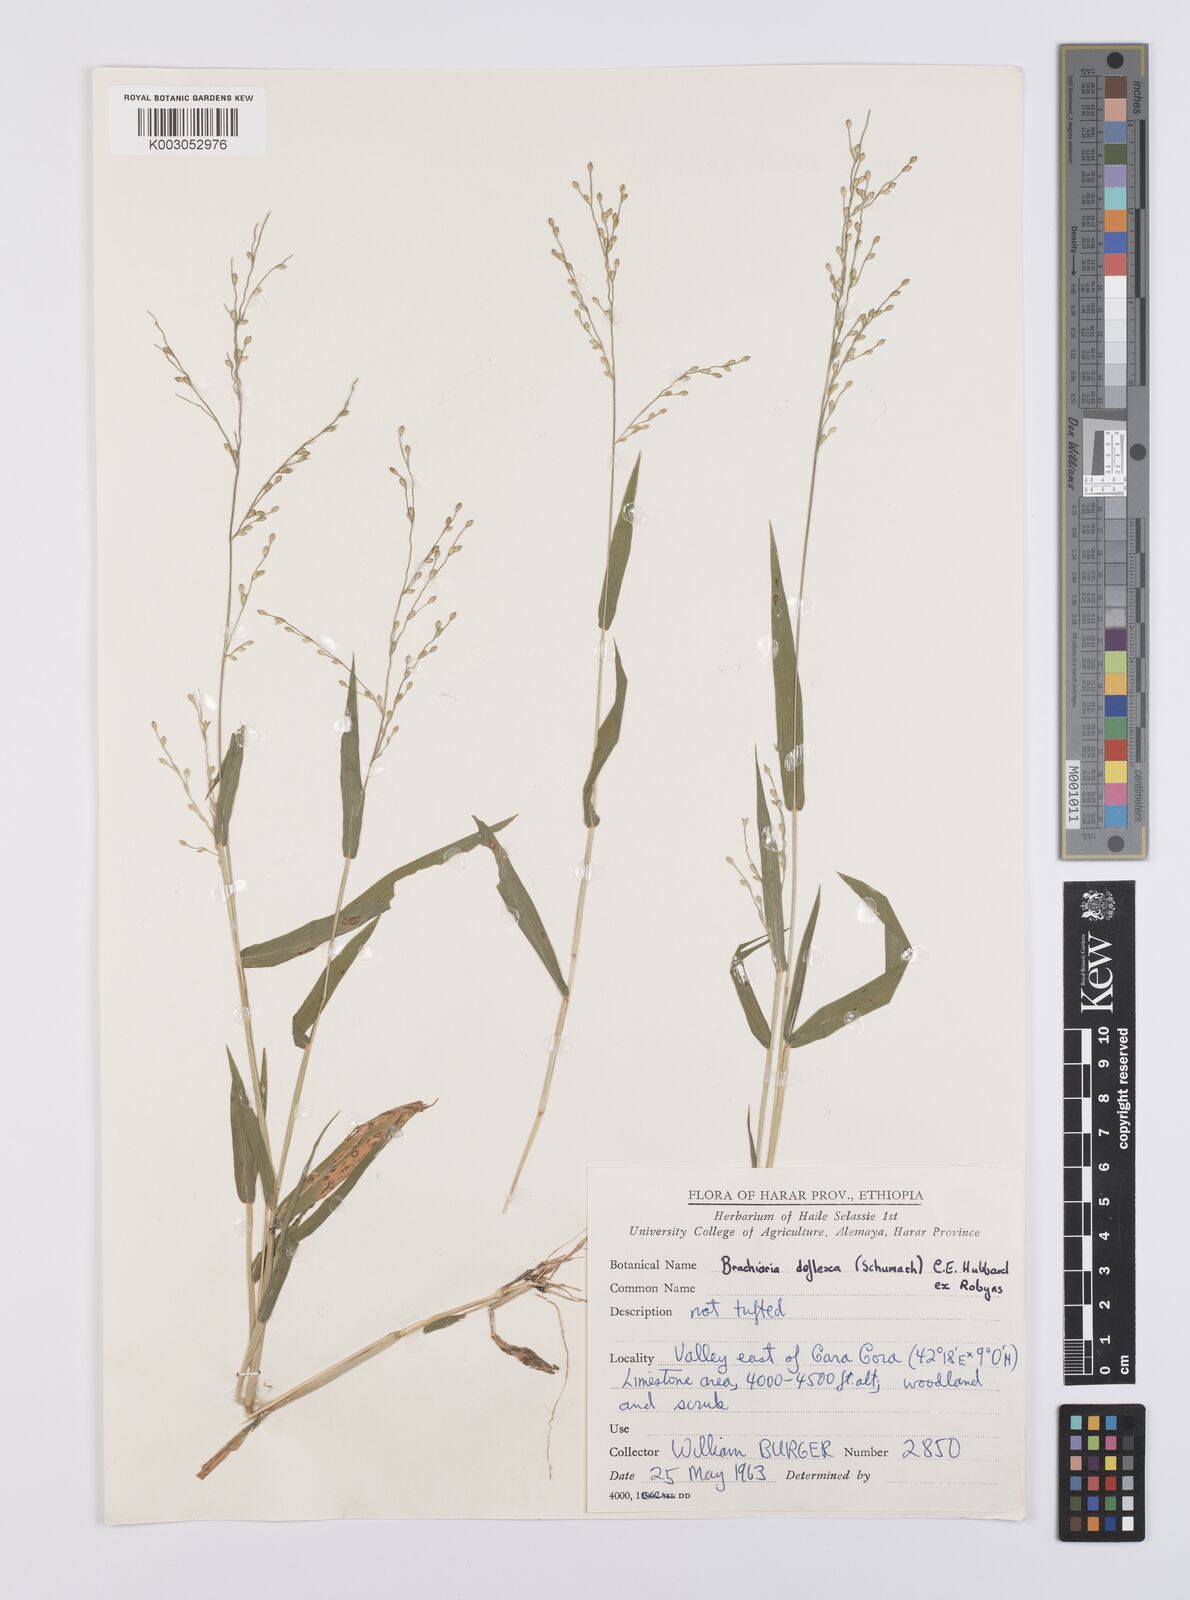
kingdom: Plantae
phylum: Tracheophyta
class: Liliopsida
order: Poales
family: Poaceae
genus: Urochloa
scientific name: Urochloa deflexa
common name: Guinea millet
